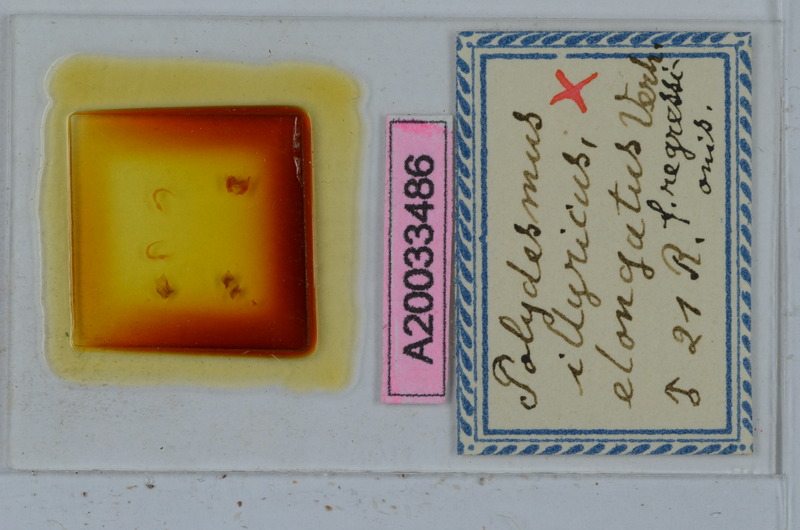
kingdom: Animalia
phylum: Arthropoda
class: Diplopoda
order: Polydesmida
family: Polydesmidae
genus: Polydesmus
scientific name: Polydesmus complanatus
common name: Flat-backed millipede
